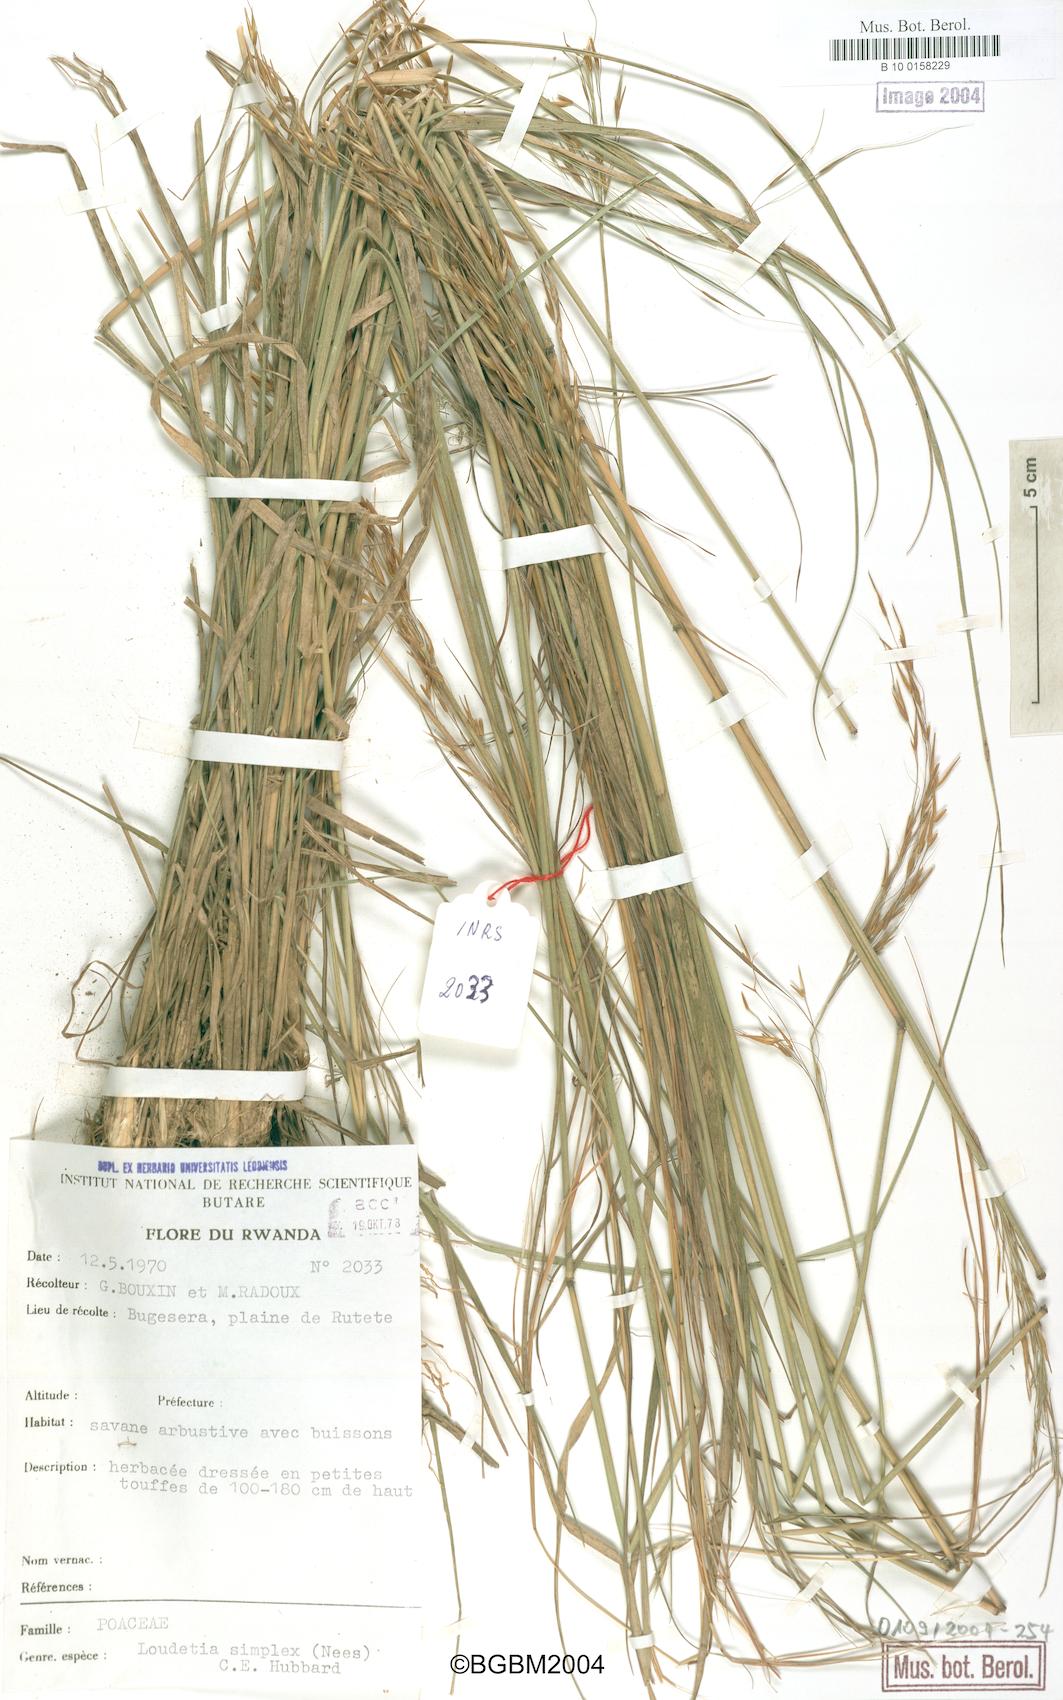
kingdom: Plantae
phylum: Tracheophyta
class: Liliopsida
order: Poales
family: Poaceae
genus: Loudetia
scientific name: Loudetia simplex
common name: Common russet grass
